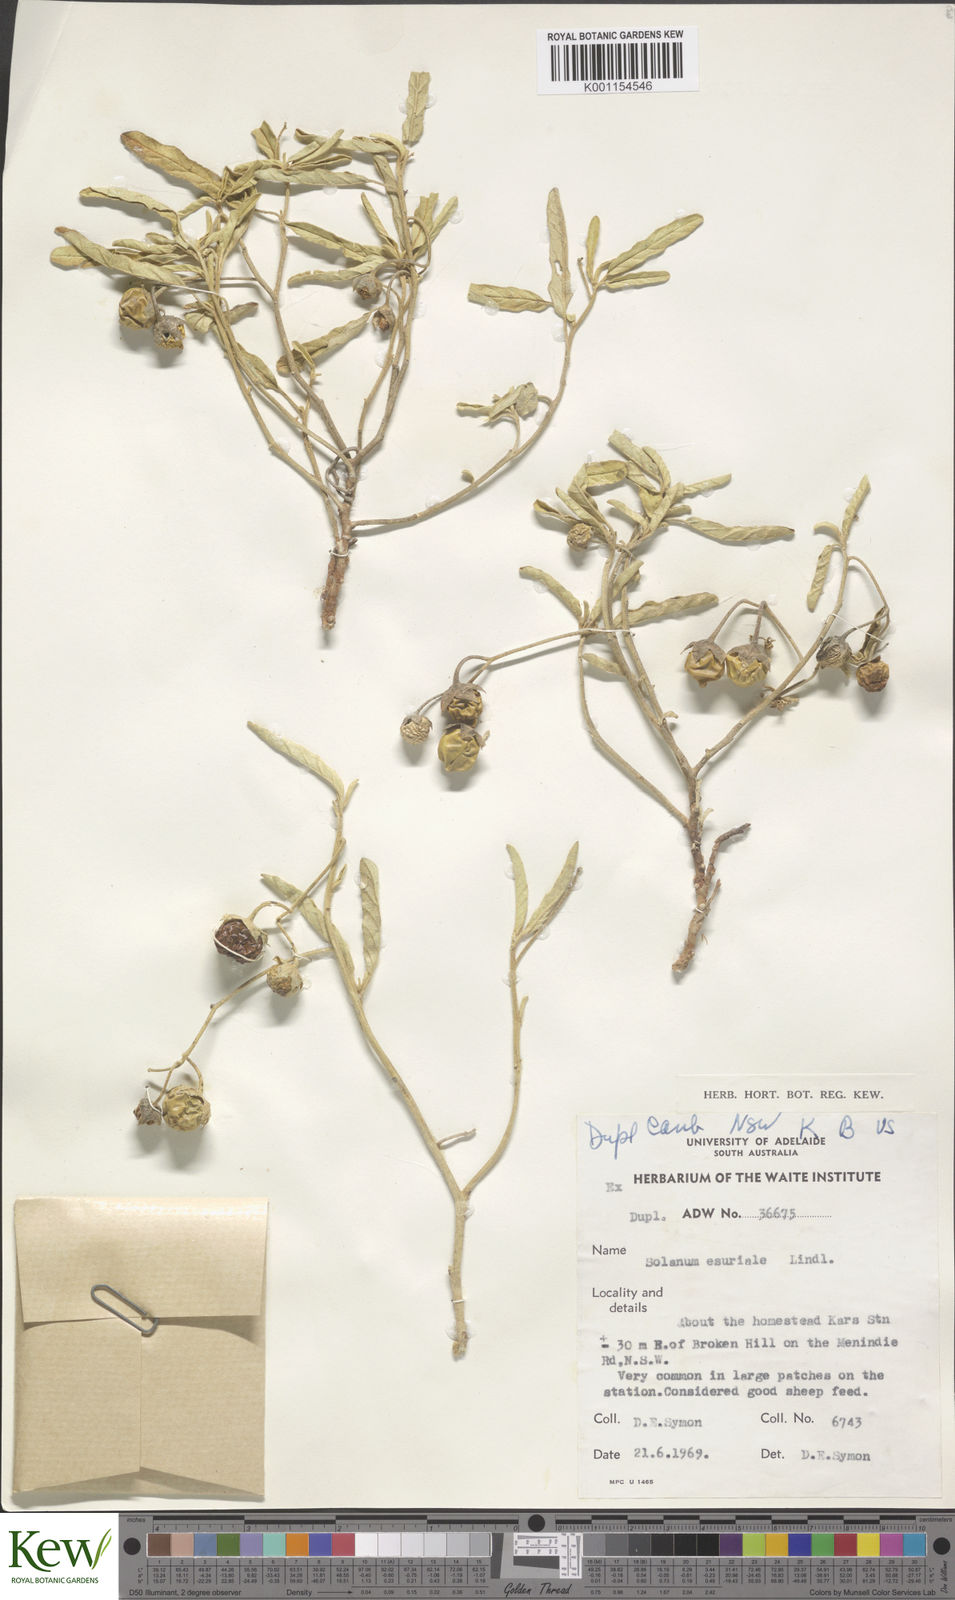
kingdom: Plantae
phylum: Tracheophyta
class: Magnoliopsida
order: Solanales
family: Solanaceae
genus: Solanum
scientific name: Solanum esuriale
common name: Wild tomato
